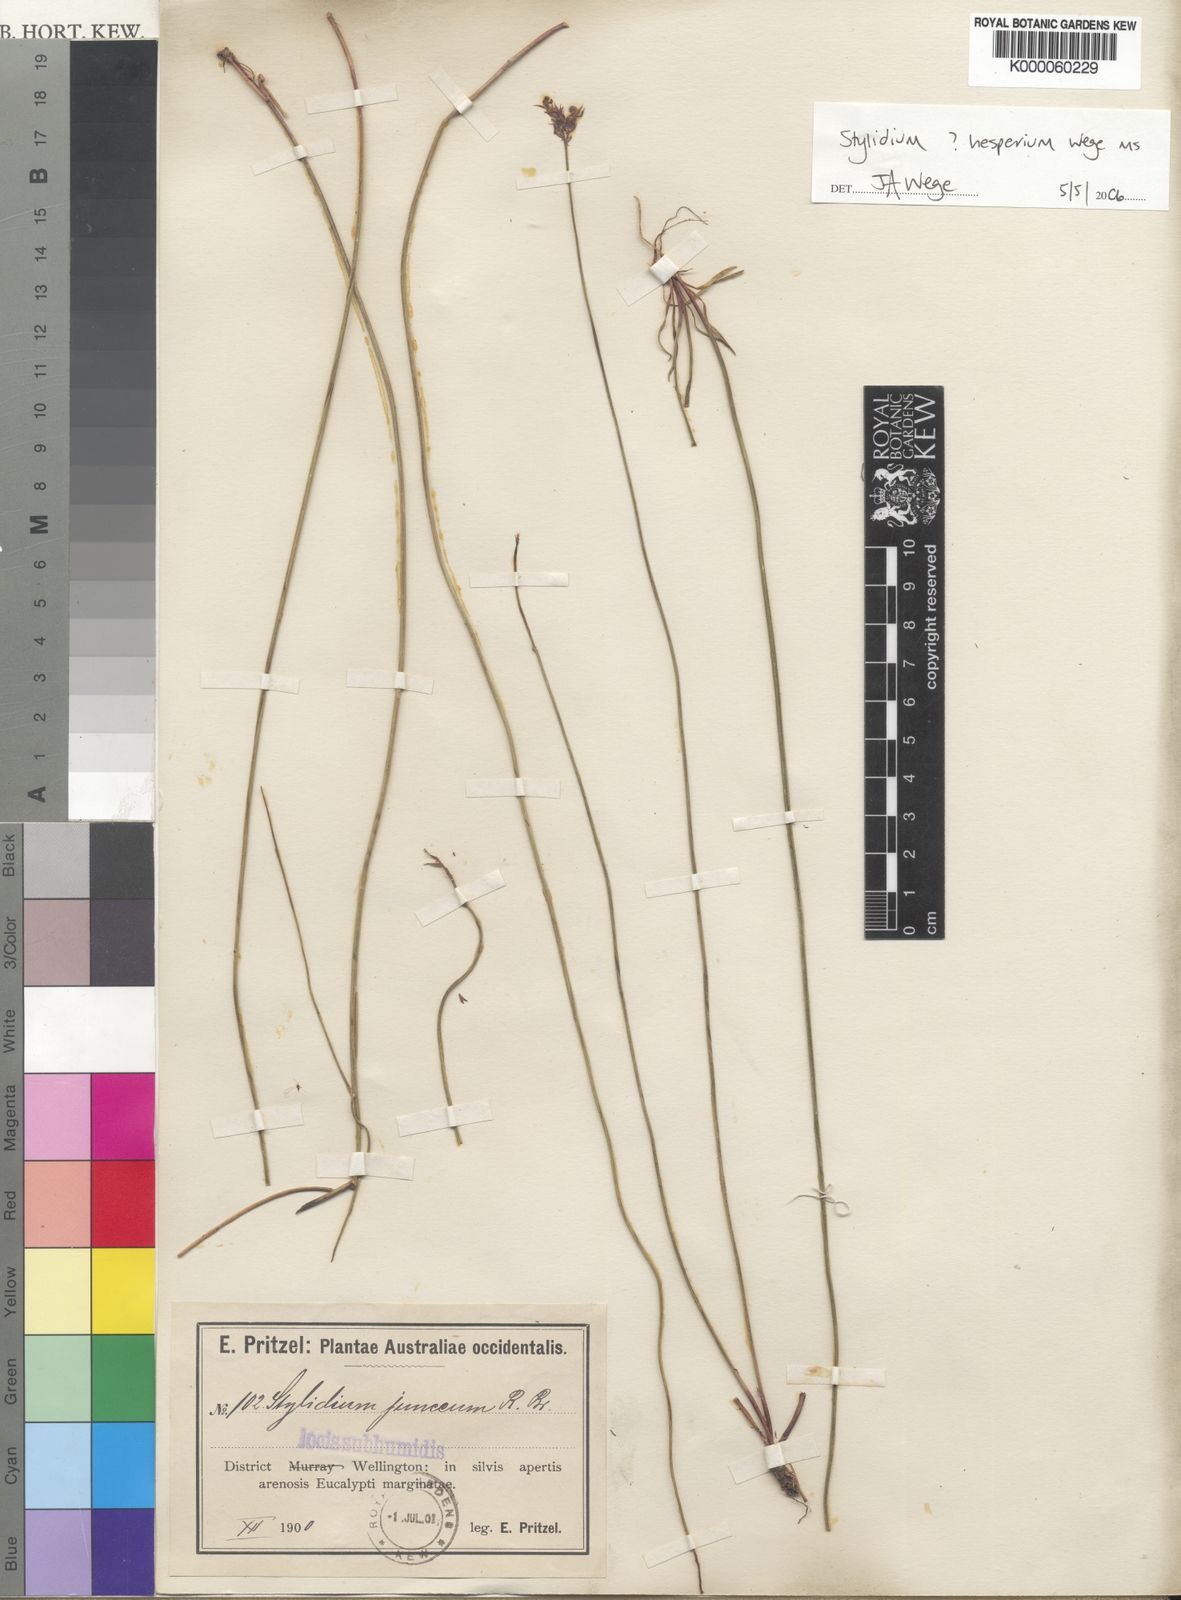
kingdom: Plantae
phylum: Tracheophyta
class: Magnoliopsida
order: Asterales
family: Stylidiaceae
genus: Stylidium
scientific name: Stylidium hesperium
